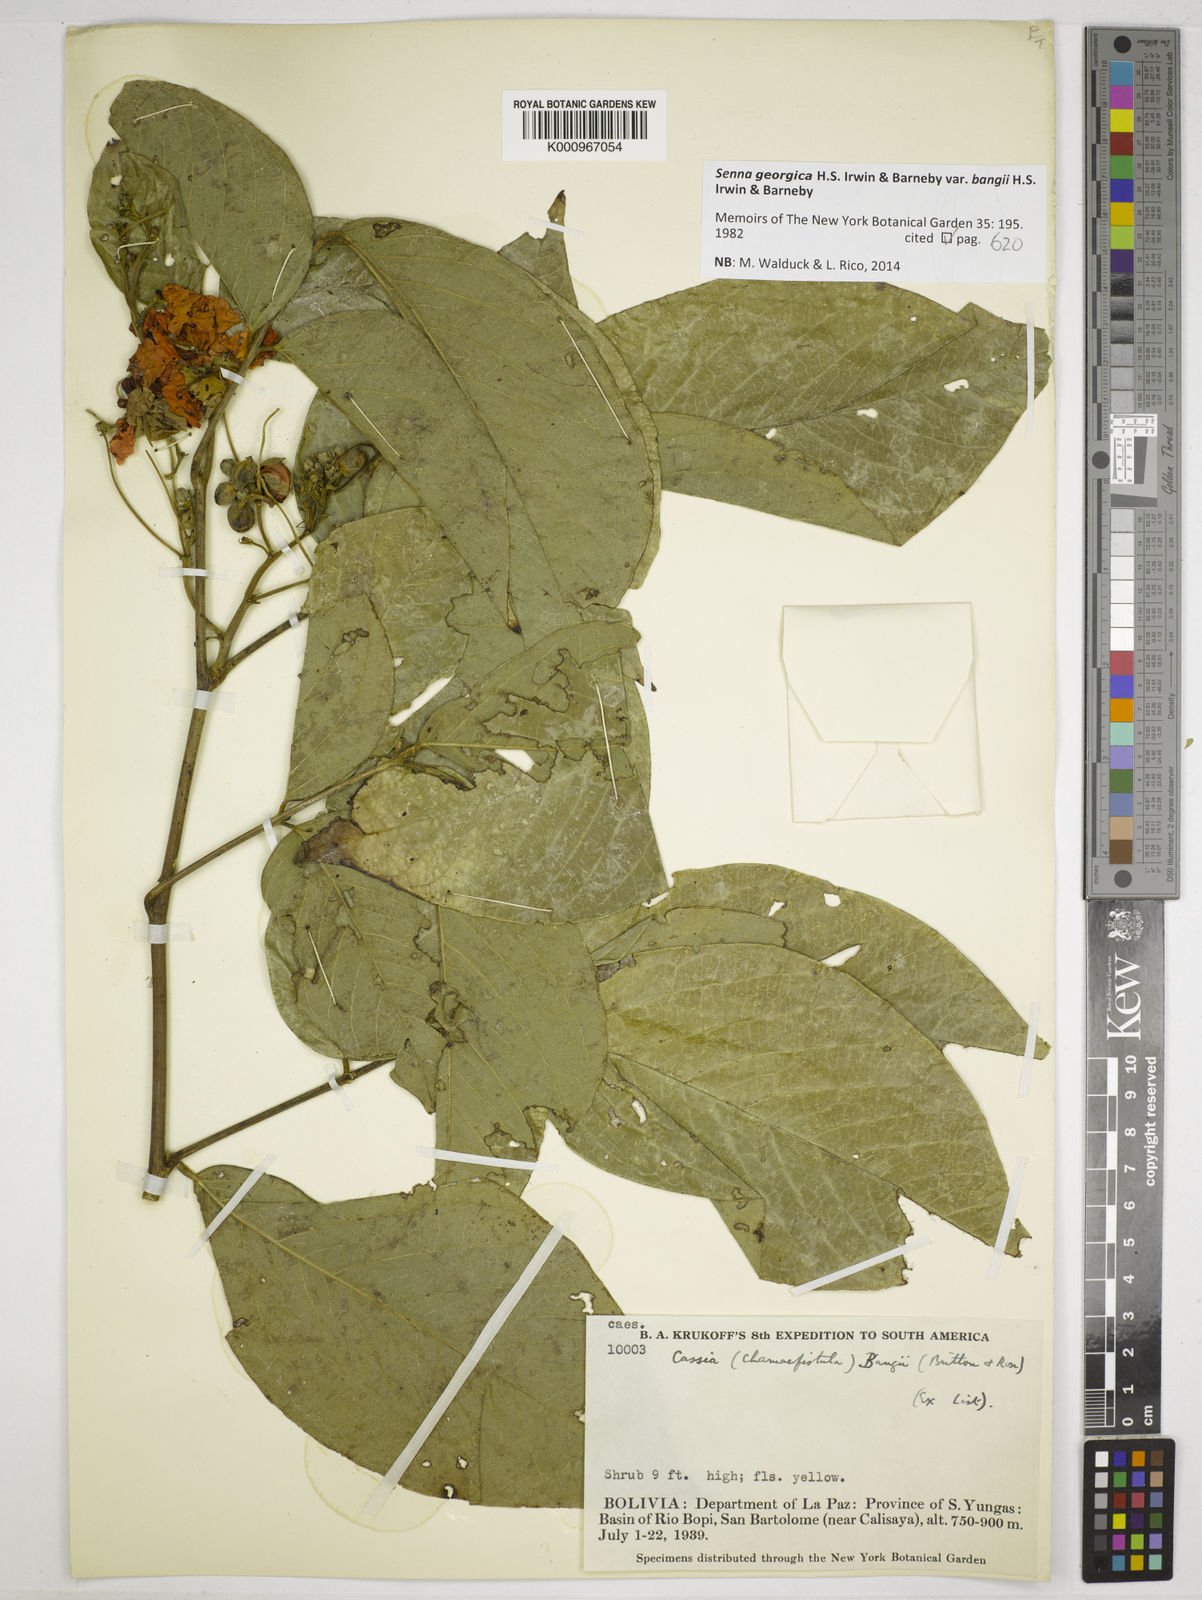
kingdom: Plantae
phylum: Tracheophyta
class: Magnoliopsida
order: Fabales
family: Fabaceae
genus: Senna
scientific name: Senna georgica
